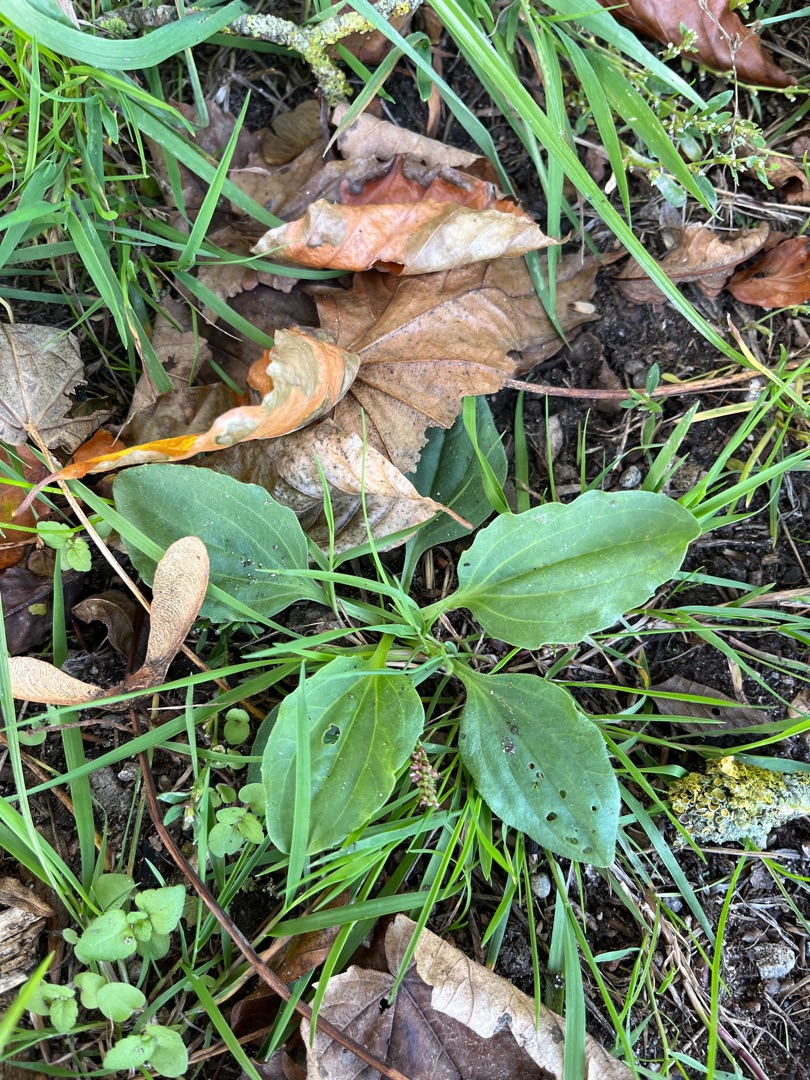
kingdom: Plantae
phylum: Tracheophyta
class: Magnoliopsida
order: Lamiales
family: Plantaginaceae
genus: Plantago
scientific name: Plantago major
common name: Glat vejbred
